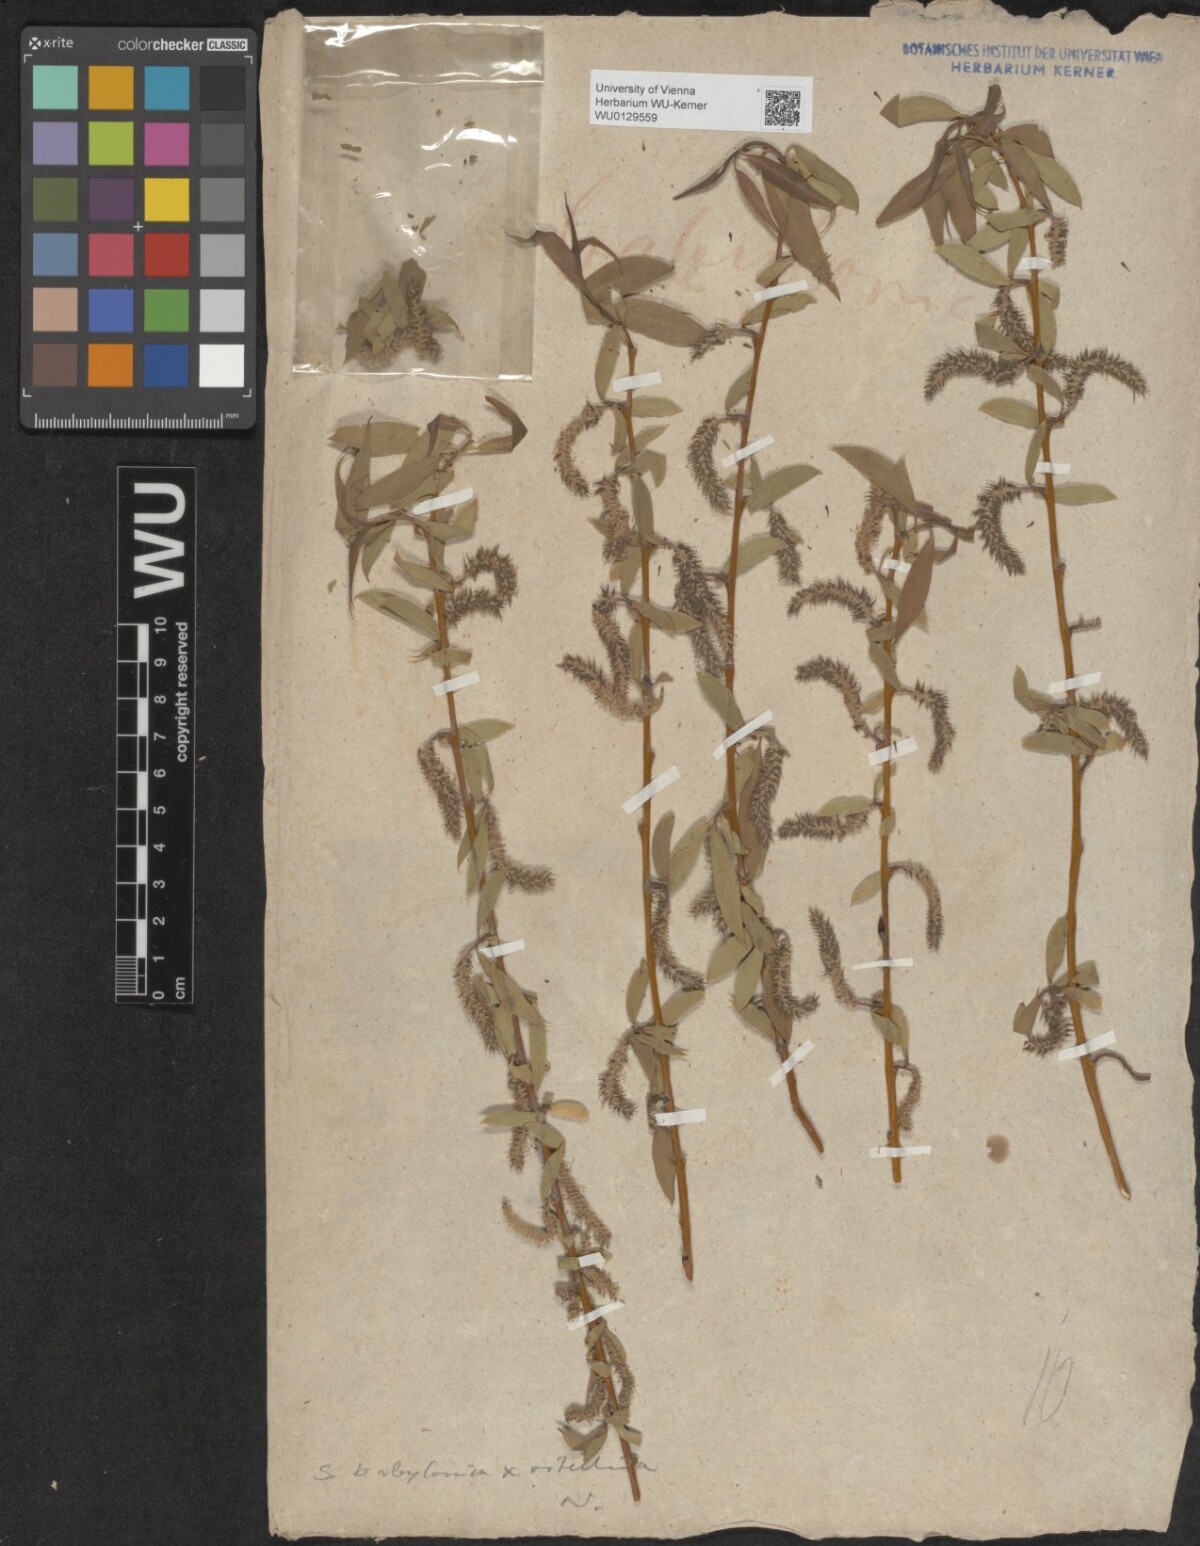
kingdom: Plantae
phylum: Tracheophyta
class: Magnoliopsida
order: Malpighiales
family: Salicaceae
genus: Salix
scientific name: Salix babylonica
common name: Weeping willow
